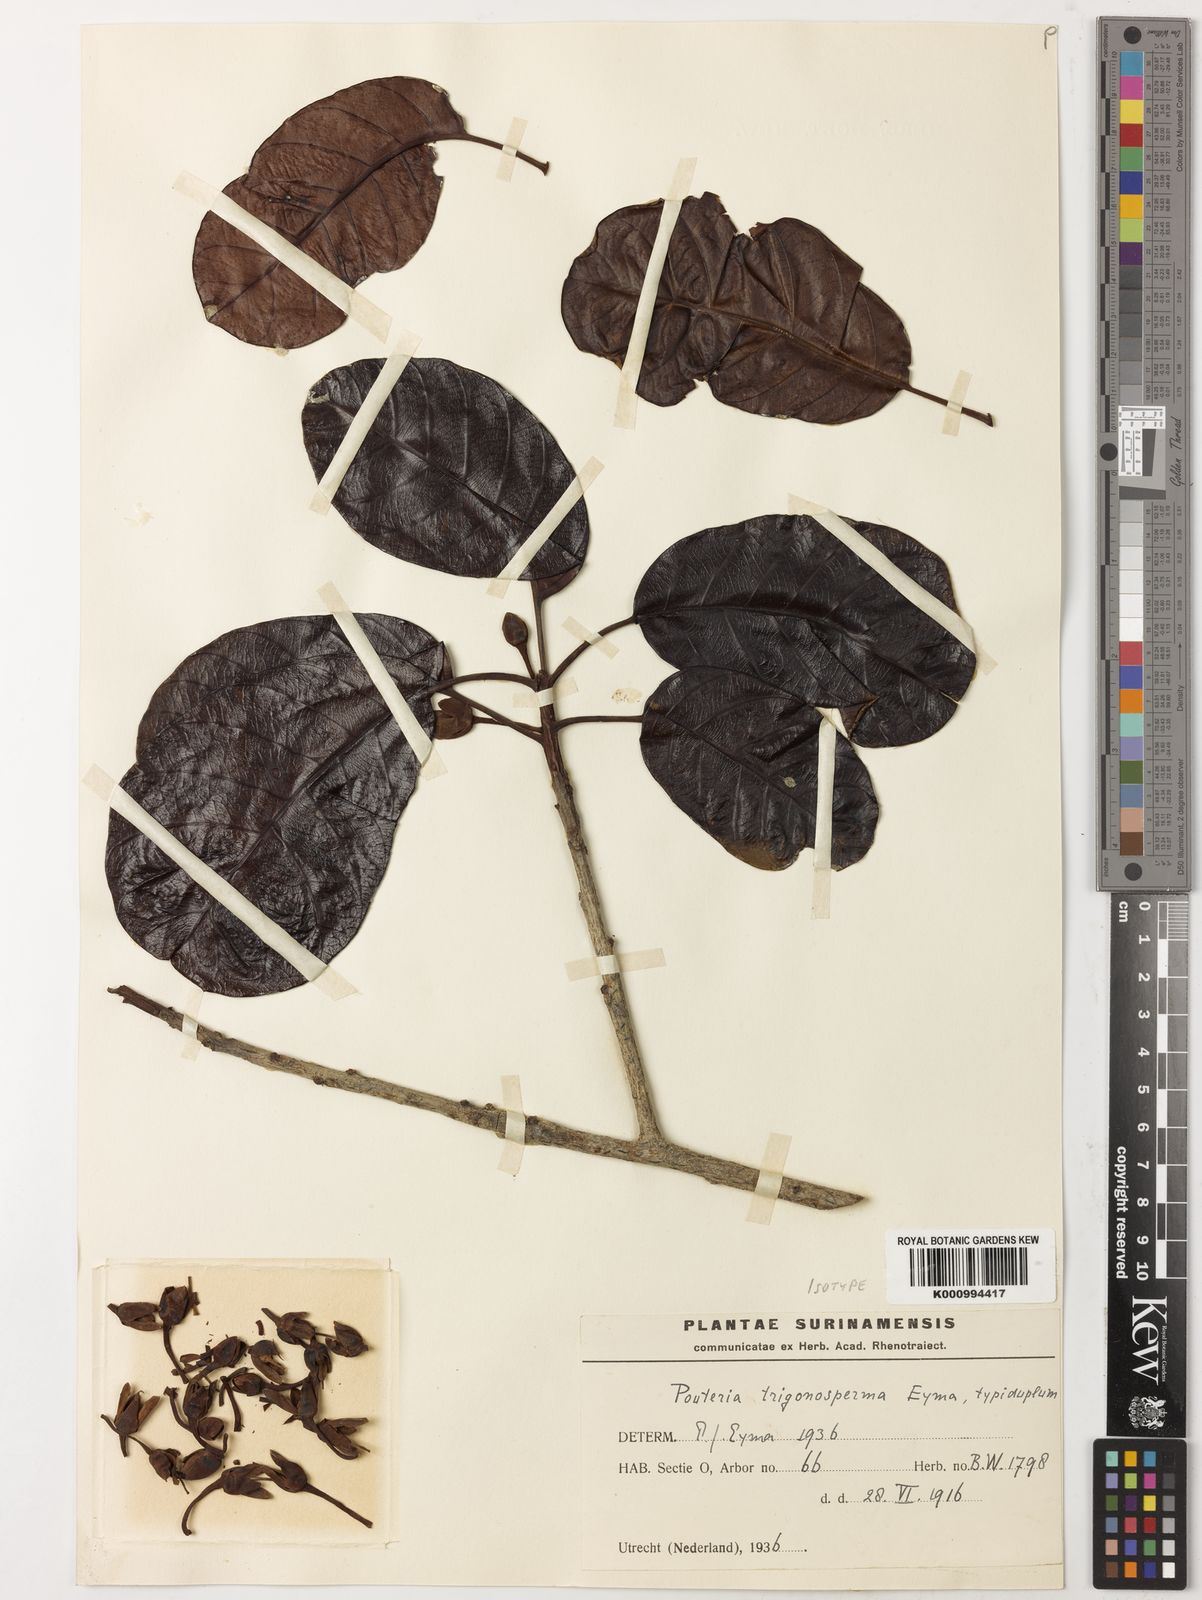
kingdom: Plantae
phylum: Tracheophyta
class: Magnoliopsida
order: Ericales
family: Sapotaceae
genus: Pouteria
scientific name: Pouteria trigonosperma
